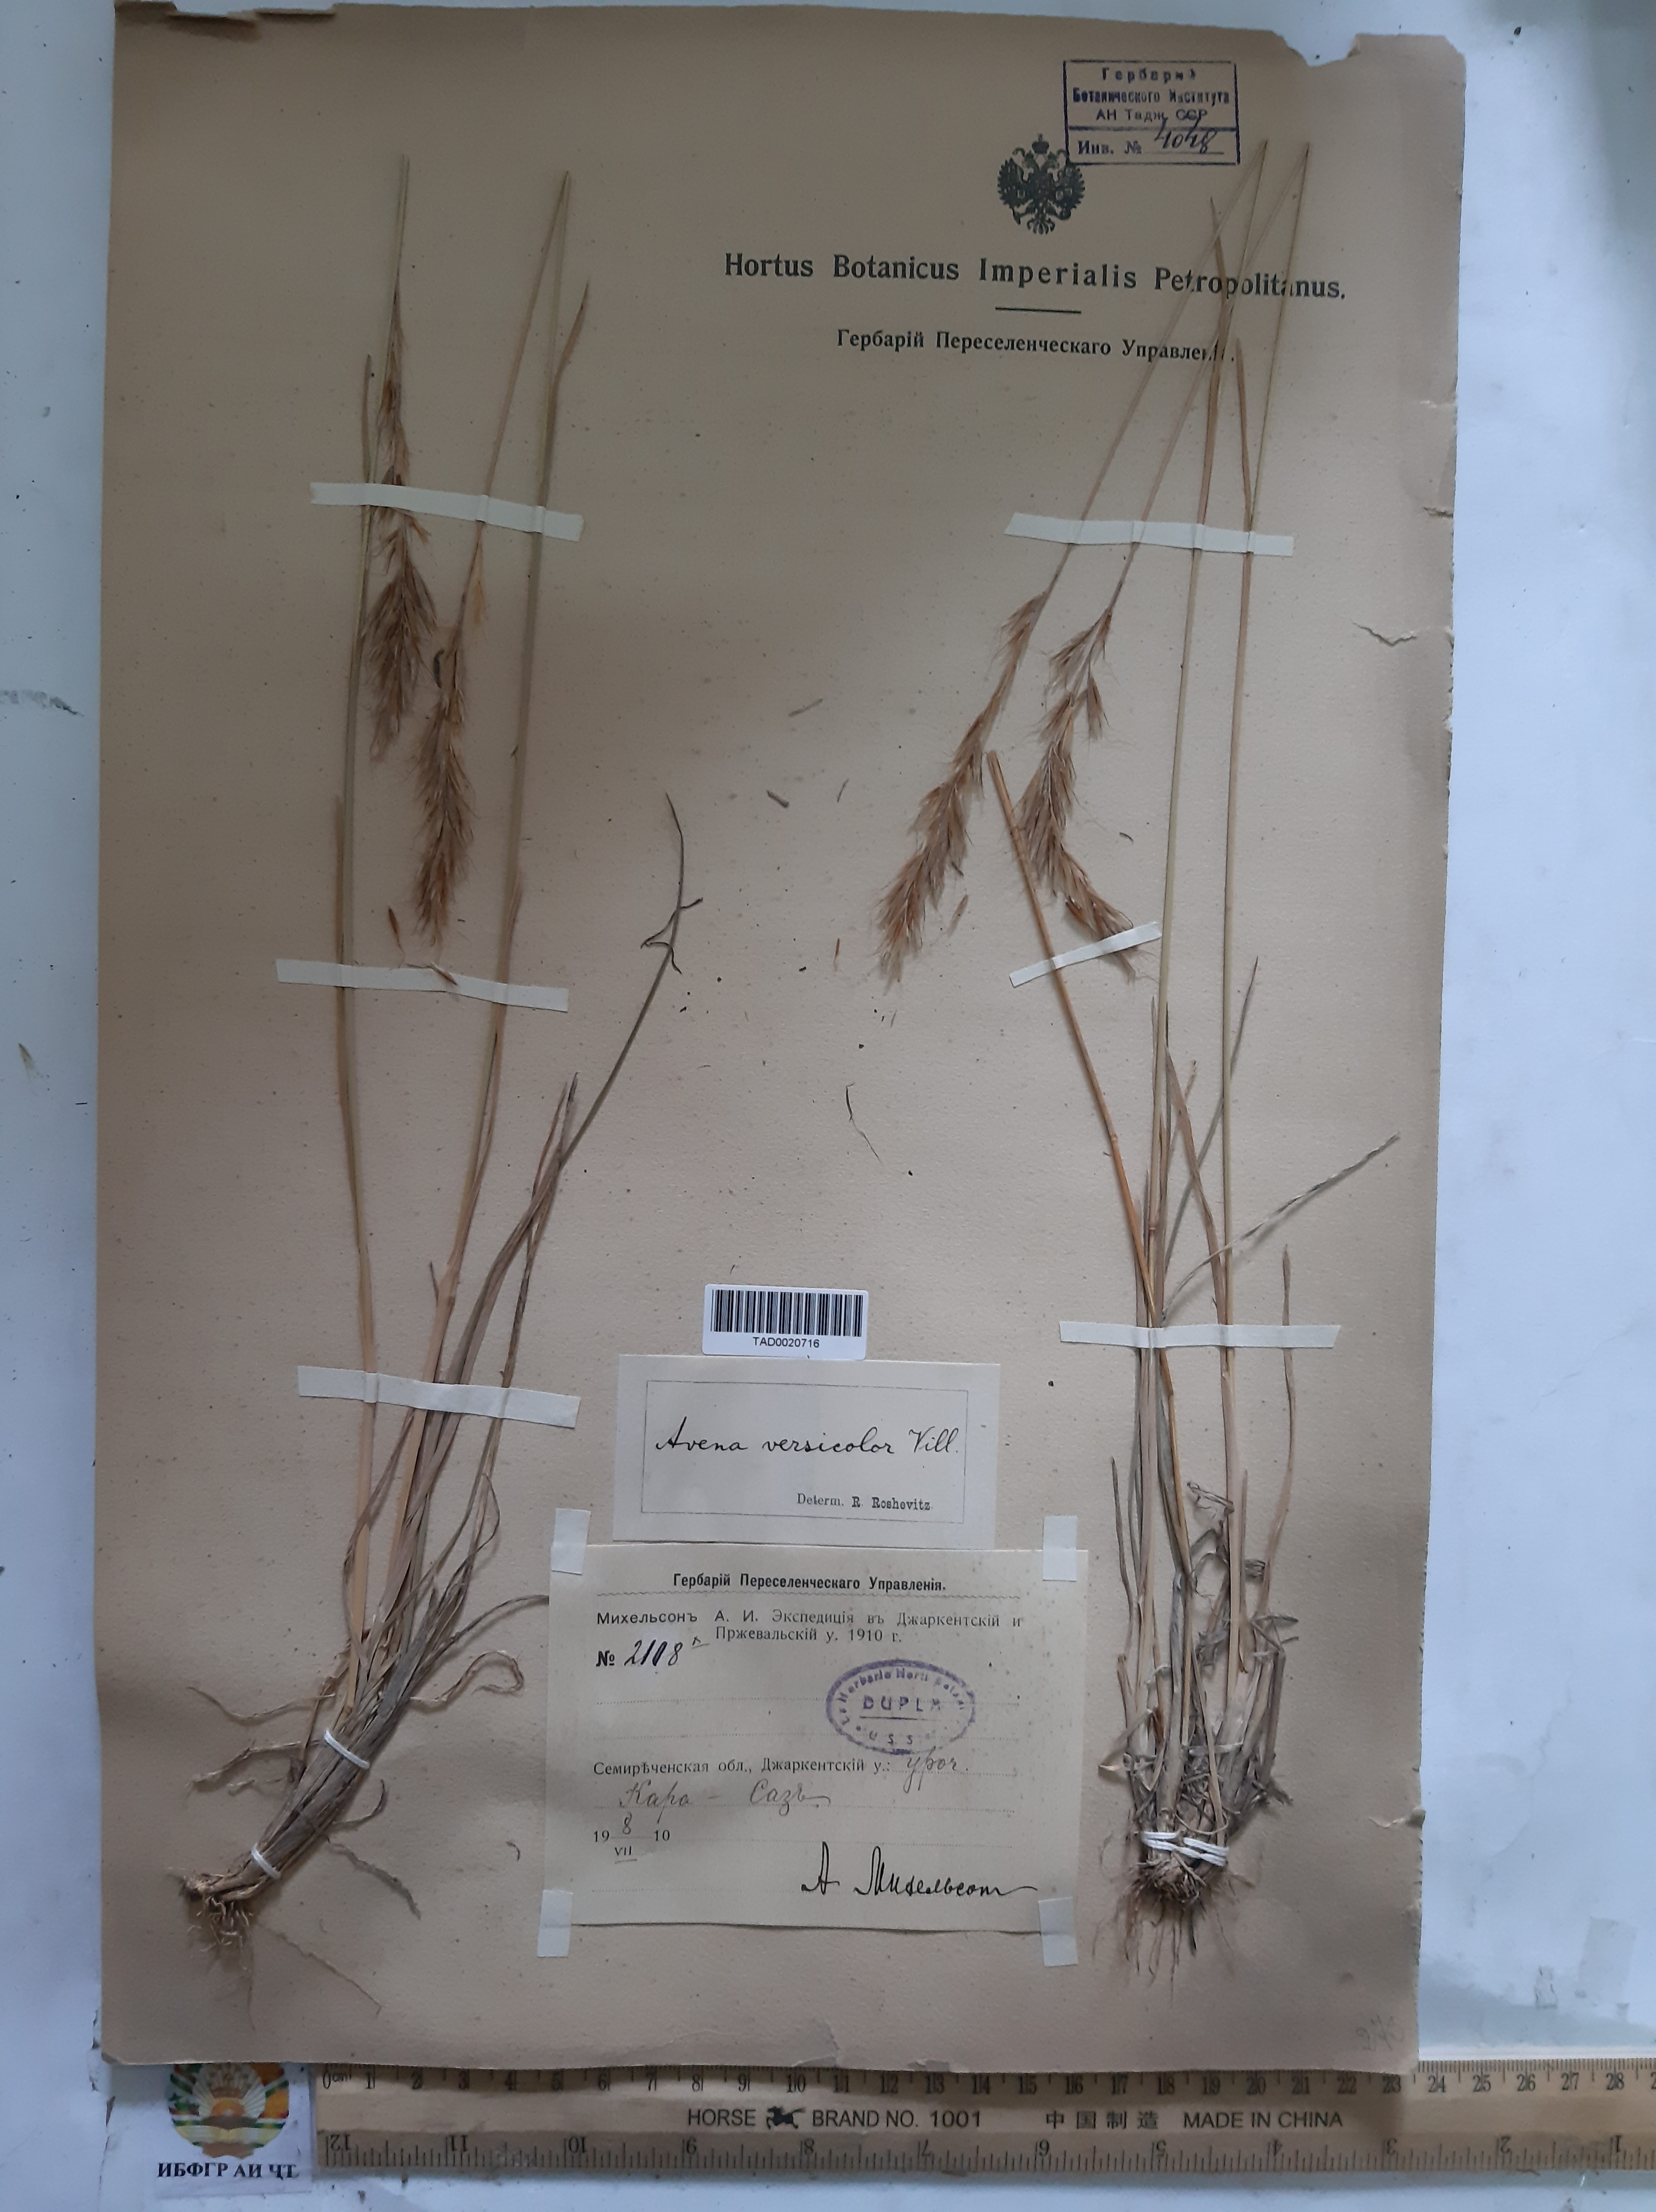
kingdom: Plantae
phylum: Tracheophyta
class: Liliopsida
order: Poales
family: Poaceae
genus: Helictochloa
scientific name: Helictochloa versicolor
